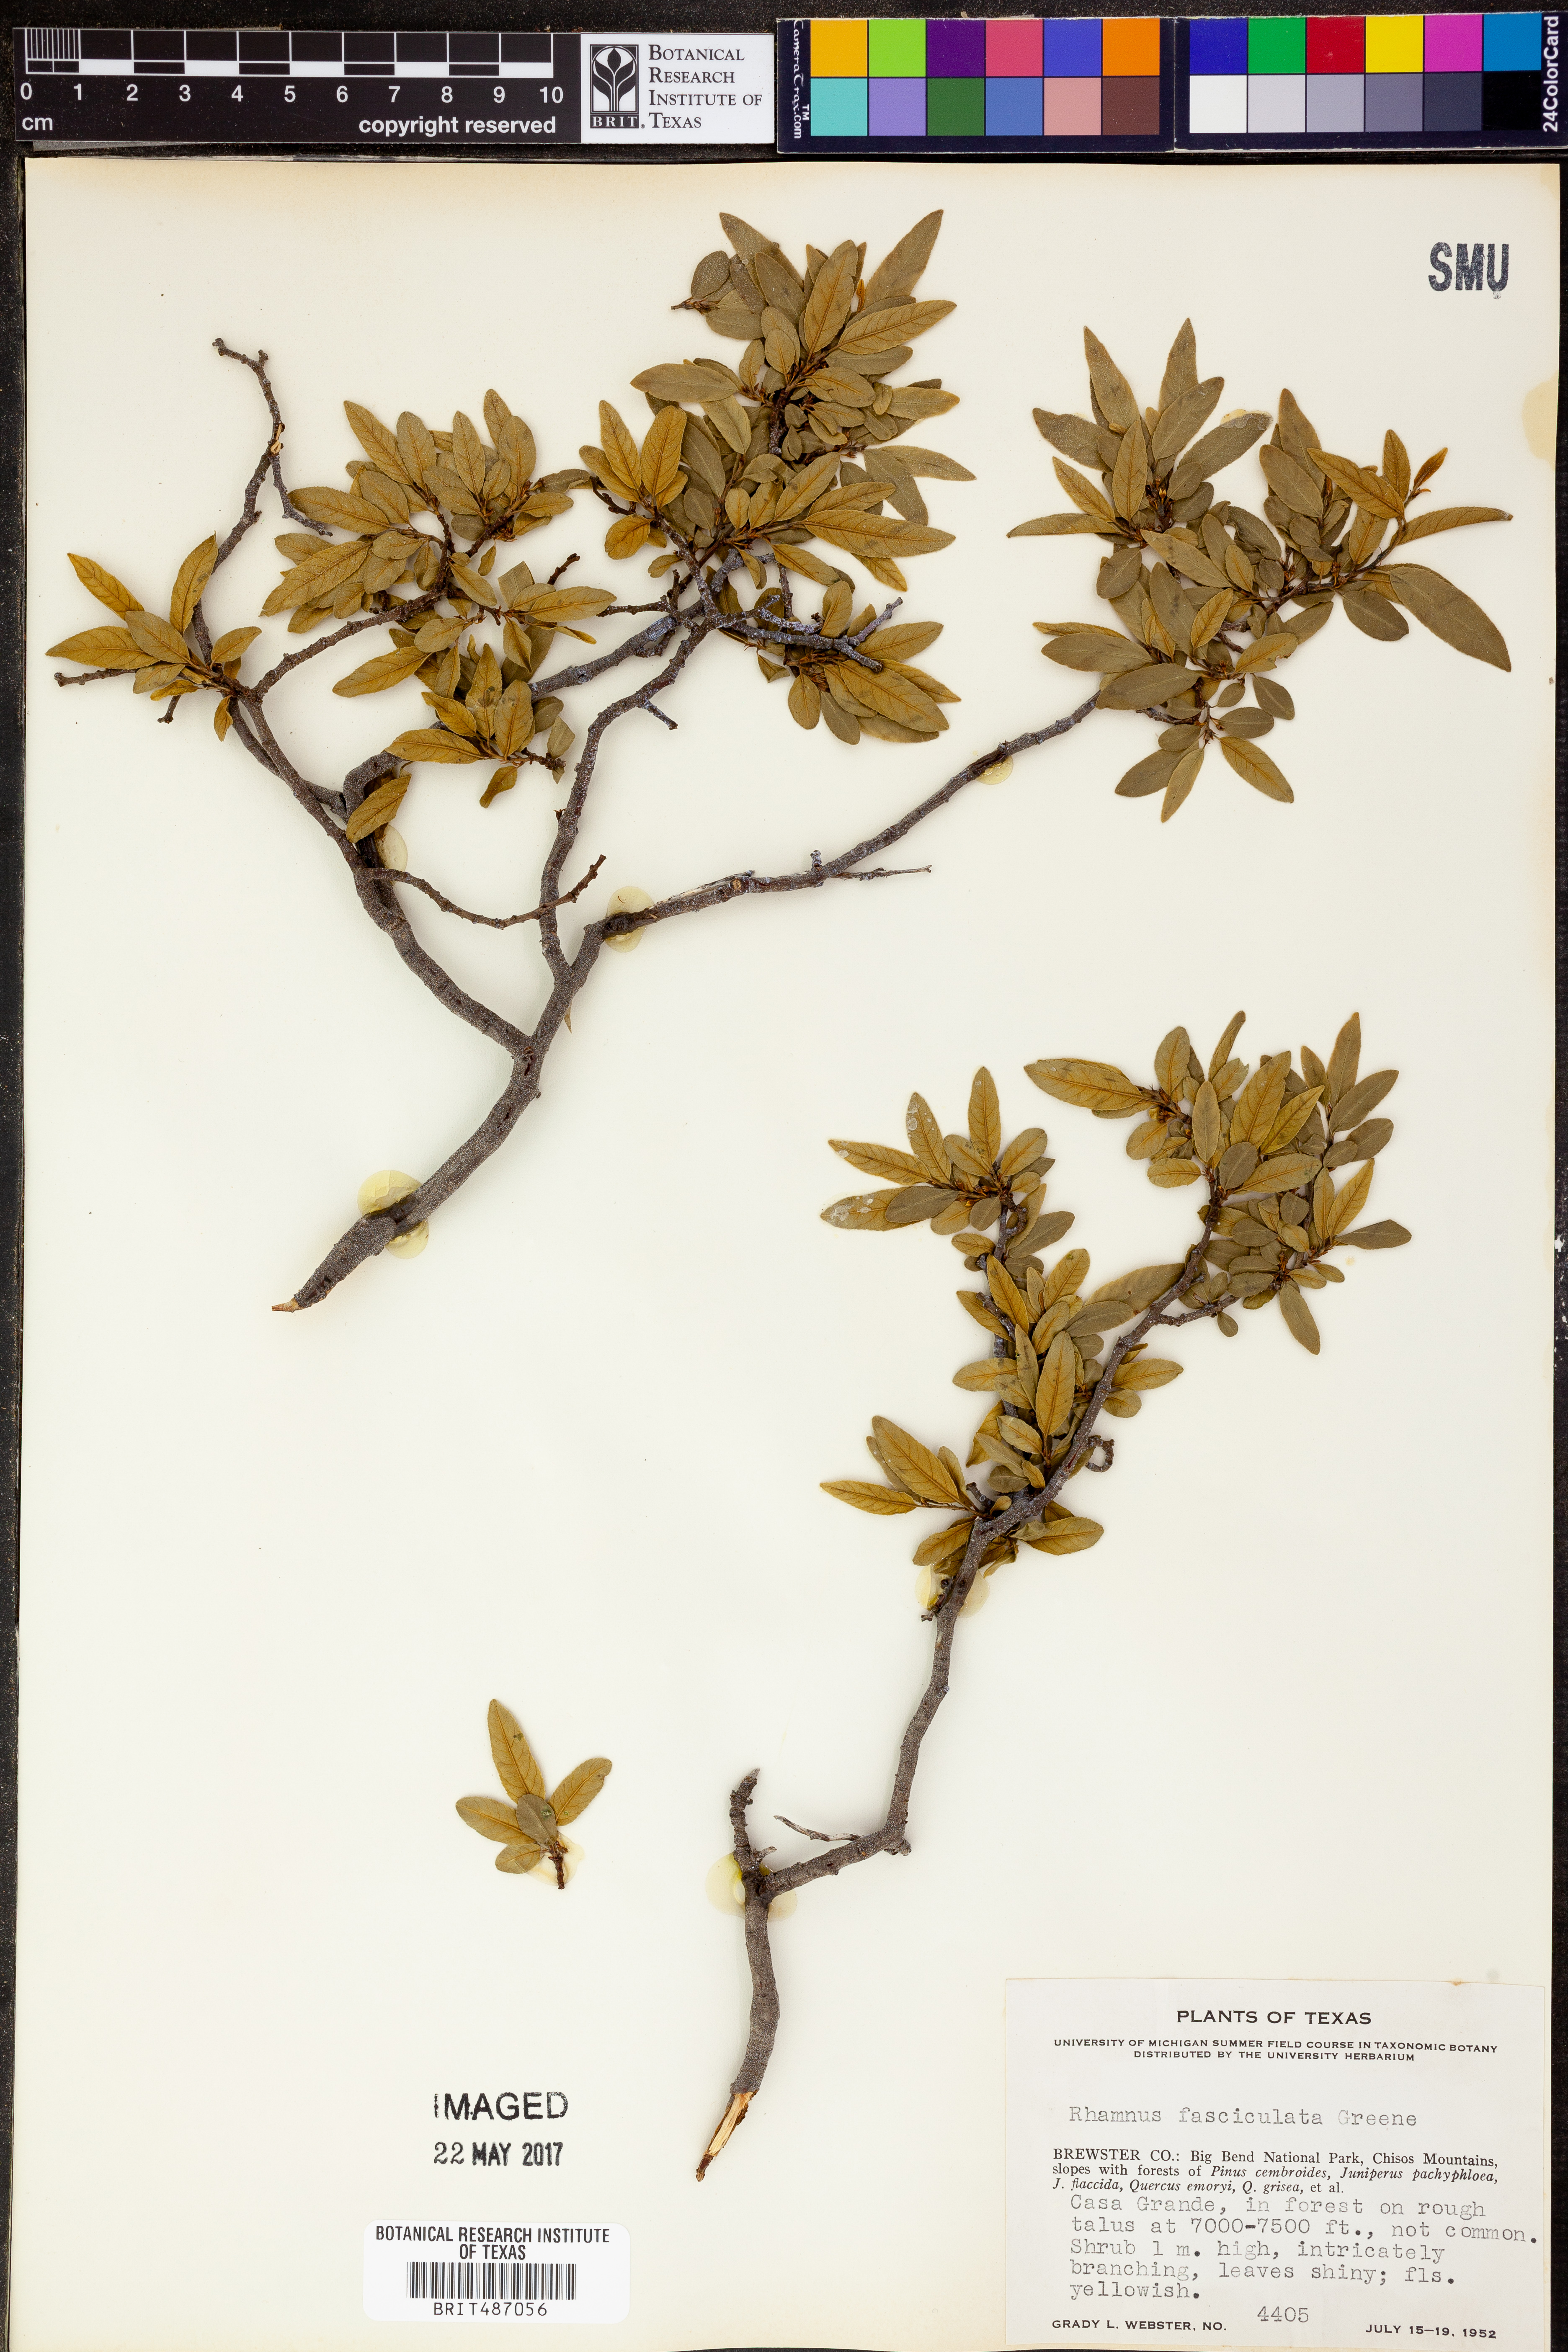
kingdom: Plantae
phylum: Tracheophyta
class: Magnoliopsida
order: Rosales
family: Rhamnaceae
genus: Endotropis
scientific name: Endotropis serrata
